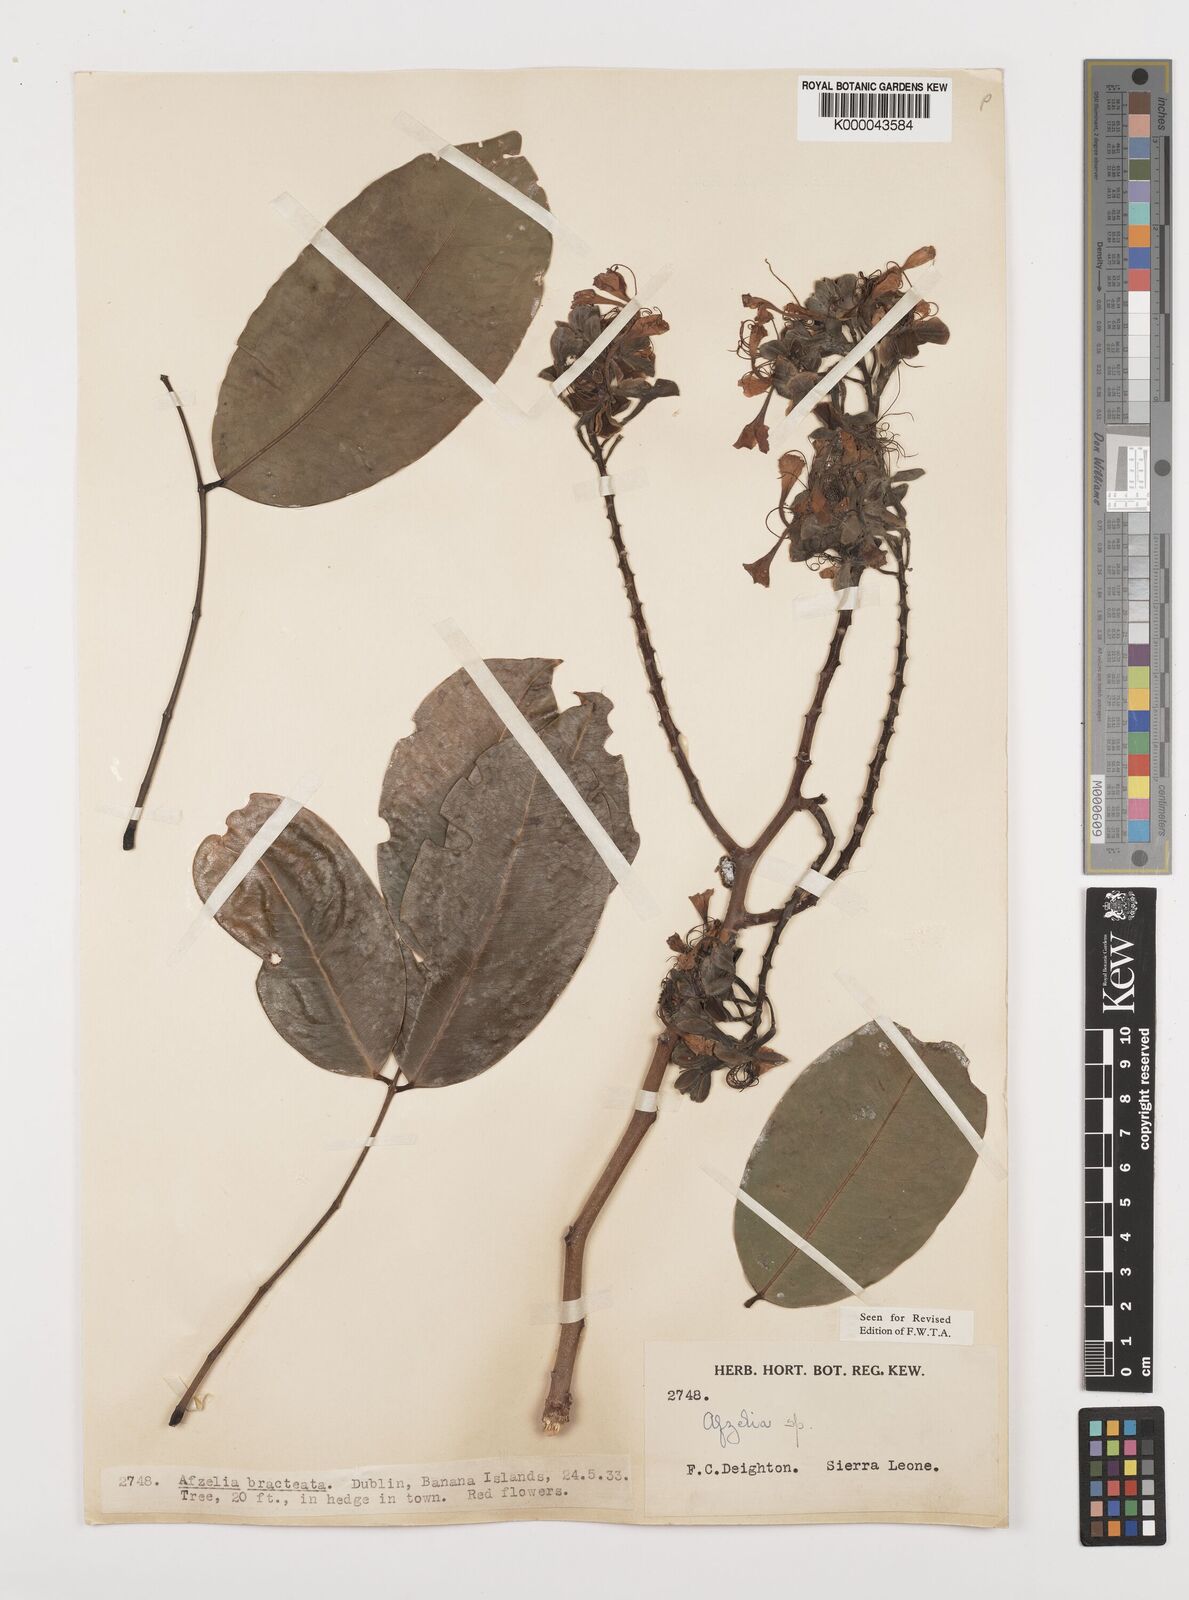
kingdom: Plantae
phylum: Tracheophyta
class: Magnoliopsida
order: Fabales
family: Fabaceae
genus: Afzelia
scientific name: Afzelia
